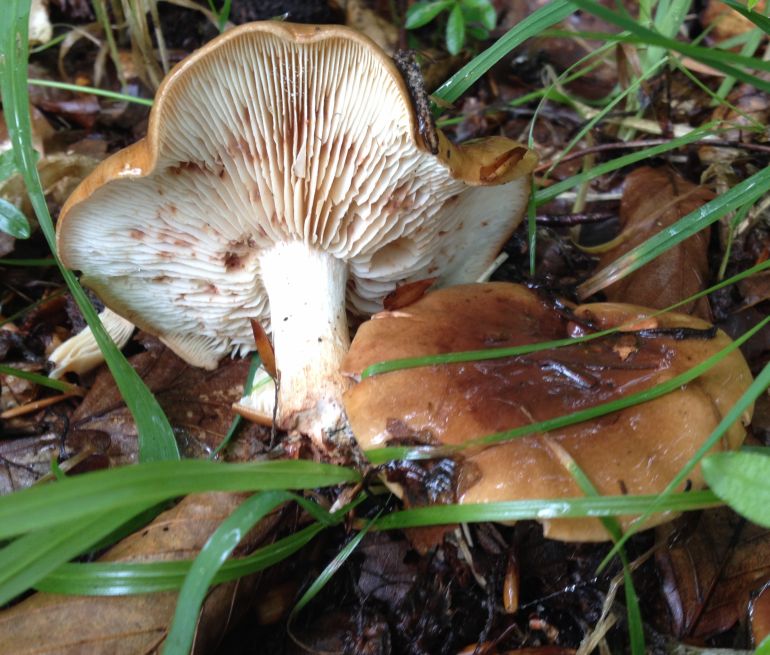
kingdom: Fungi
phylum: Basidiomycota
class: Agaricomycetes
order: Agaricales
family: Tricholomataceae
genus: Tricholoma
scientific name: Tricholoma ustale
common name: sveden ridderhat
